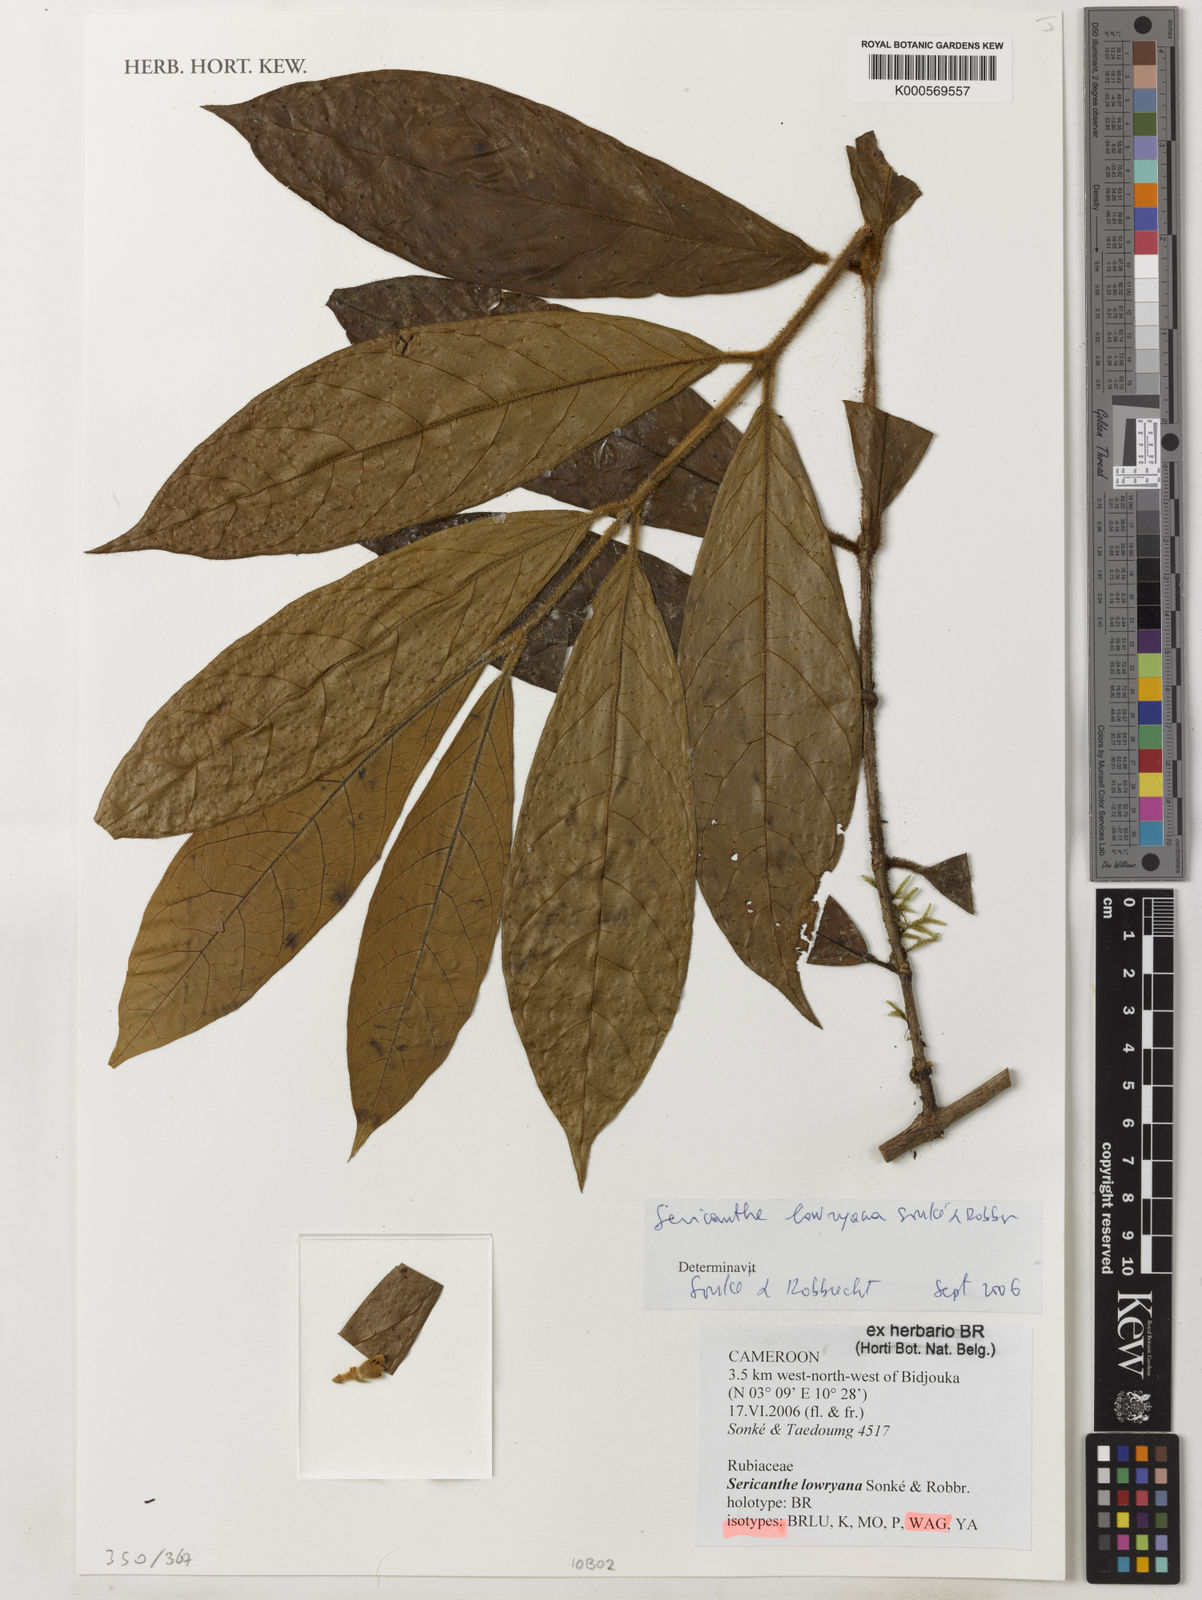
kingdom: Plantae
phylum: Tracheophyta
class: Magnoliopsida
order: Gentianales
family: Rubiaceae
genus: Sericanthe
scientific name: Sericanthe
